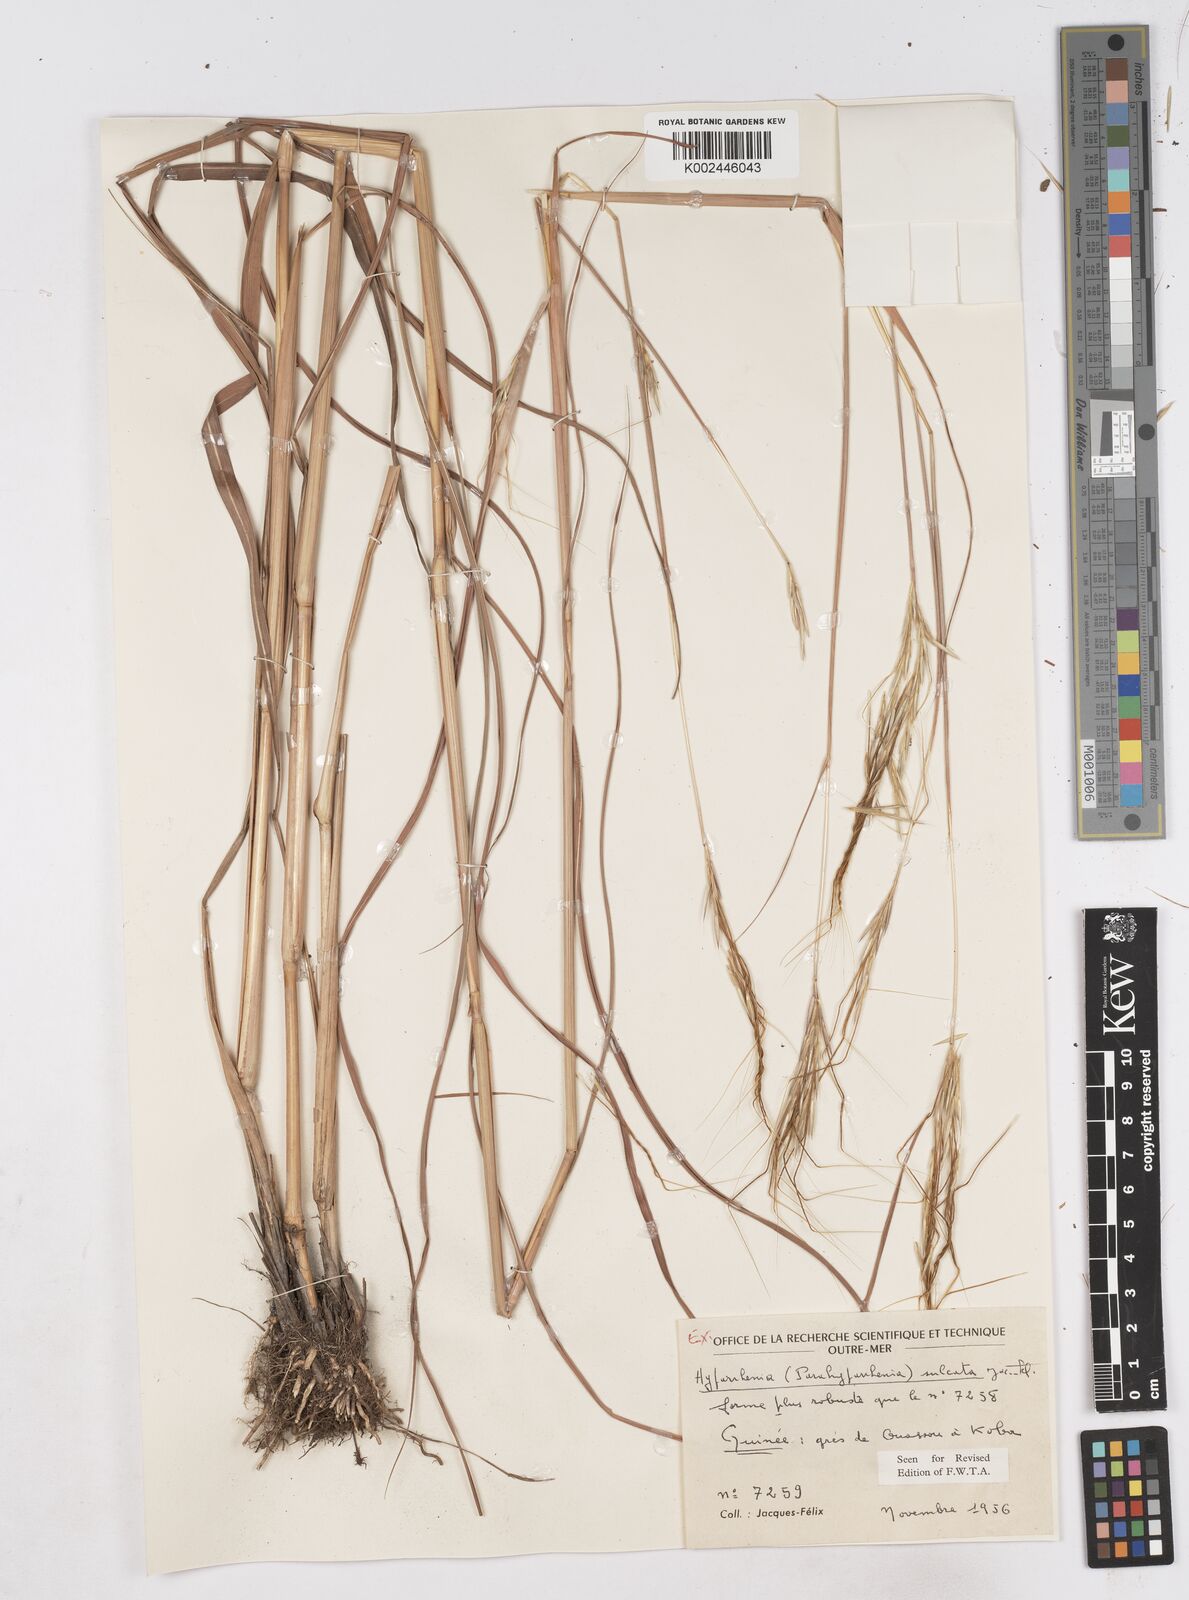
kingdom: Plantae
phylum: Tracheophyta
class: Liliopsida
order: Poales
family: Poaceae
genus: Parahyparrhenia
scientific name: Parahyparrhenia annua
